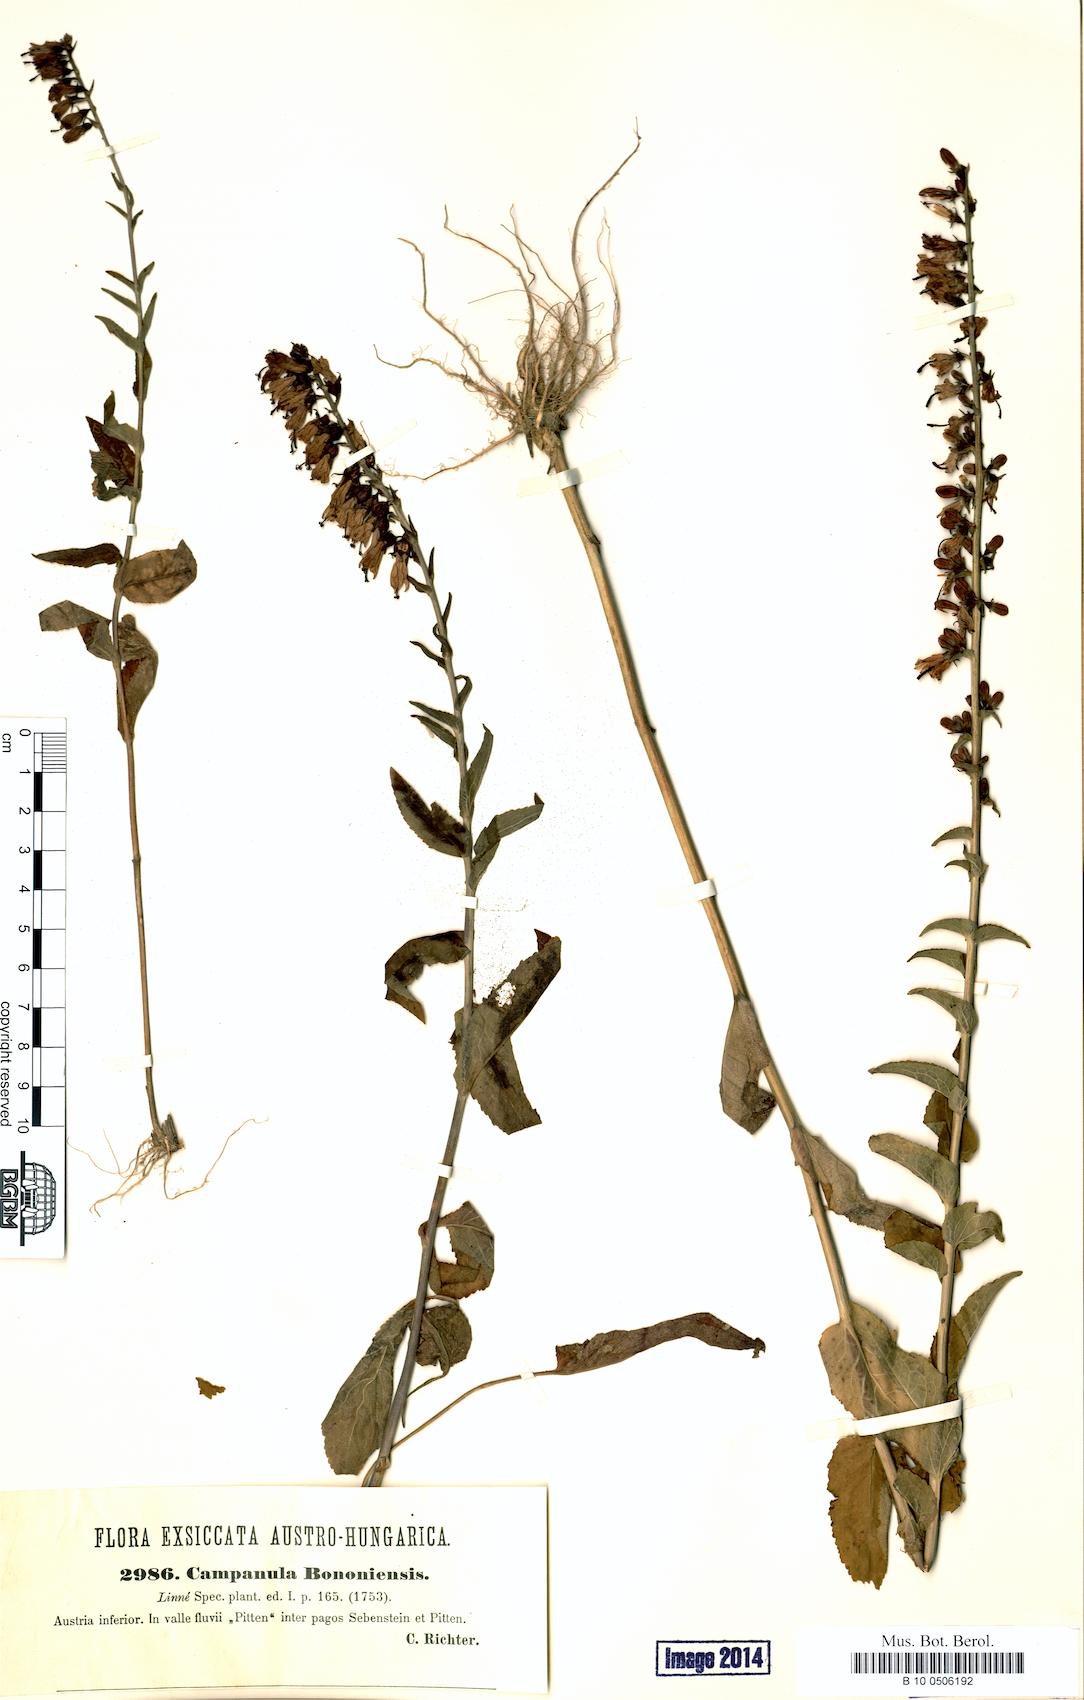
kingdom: Plantae
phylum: Tracheophyta
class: Magnoliopsida
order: Asterales
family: Campanulaceae
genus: Campanula
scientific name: Campanula bononiensis
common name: Pale bellflower
